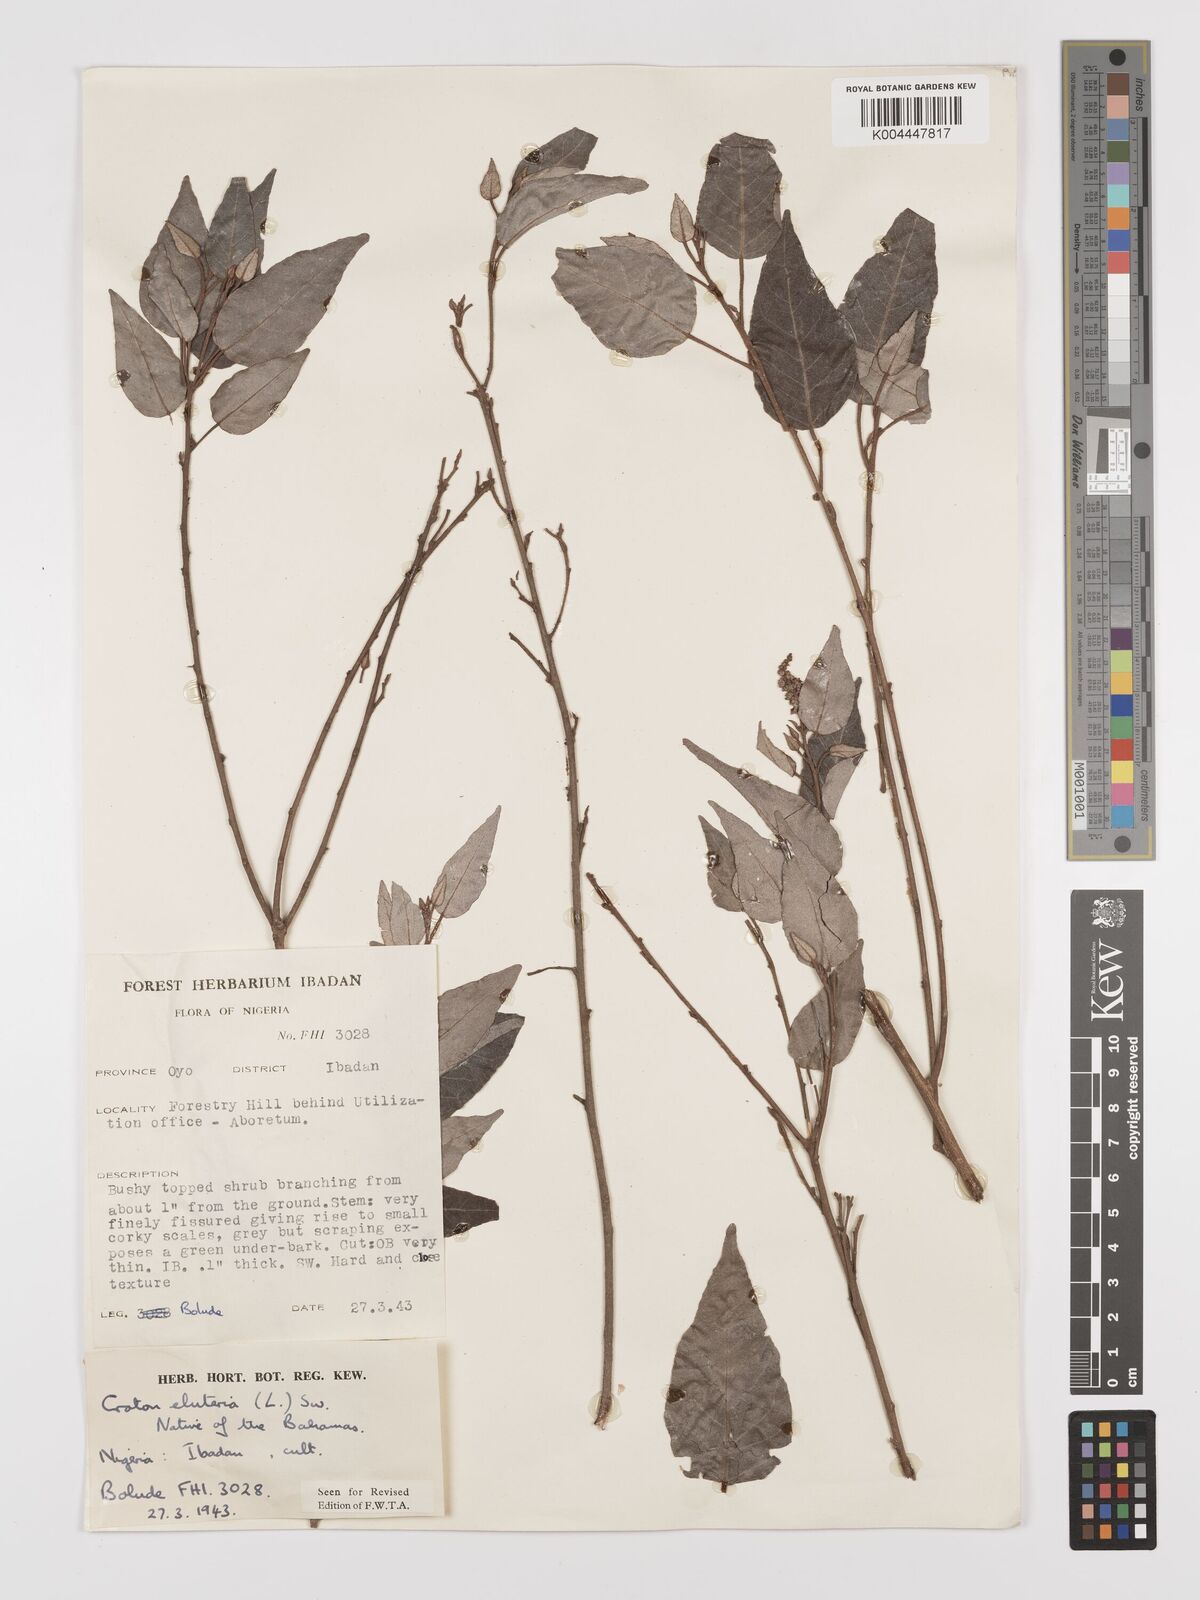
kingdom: Plantae
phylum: Tracheophyta
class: Magnoliopsida
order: Malpighiales
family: Euphorbiaceae
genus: Croton
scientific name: Croton
